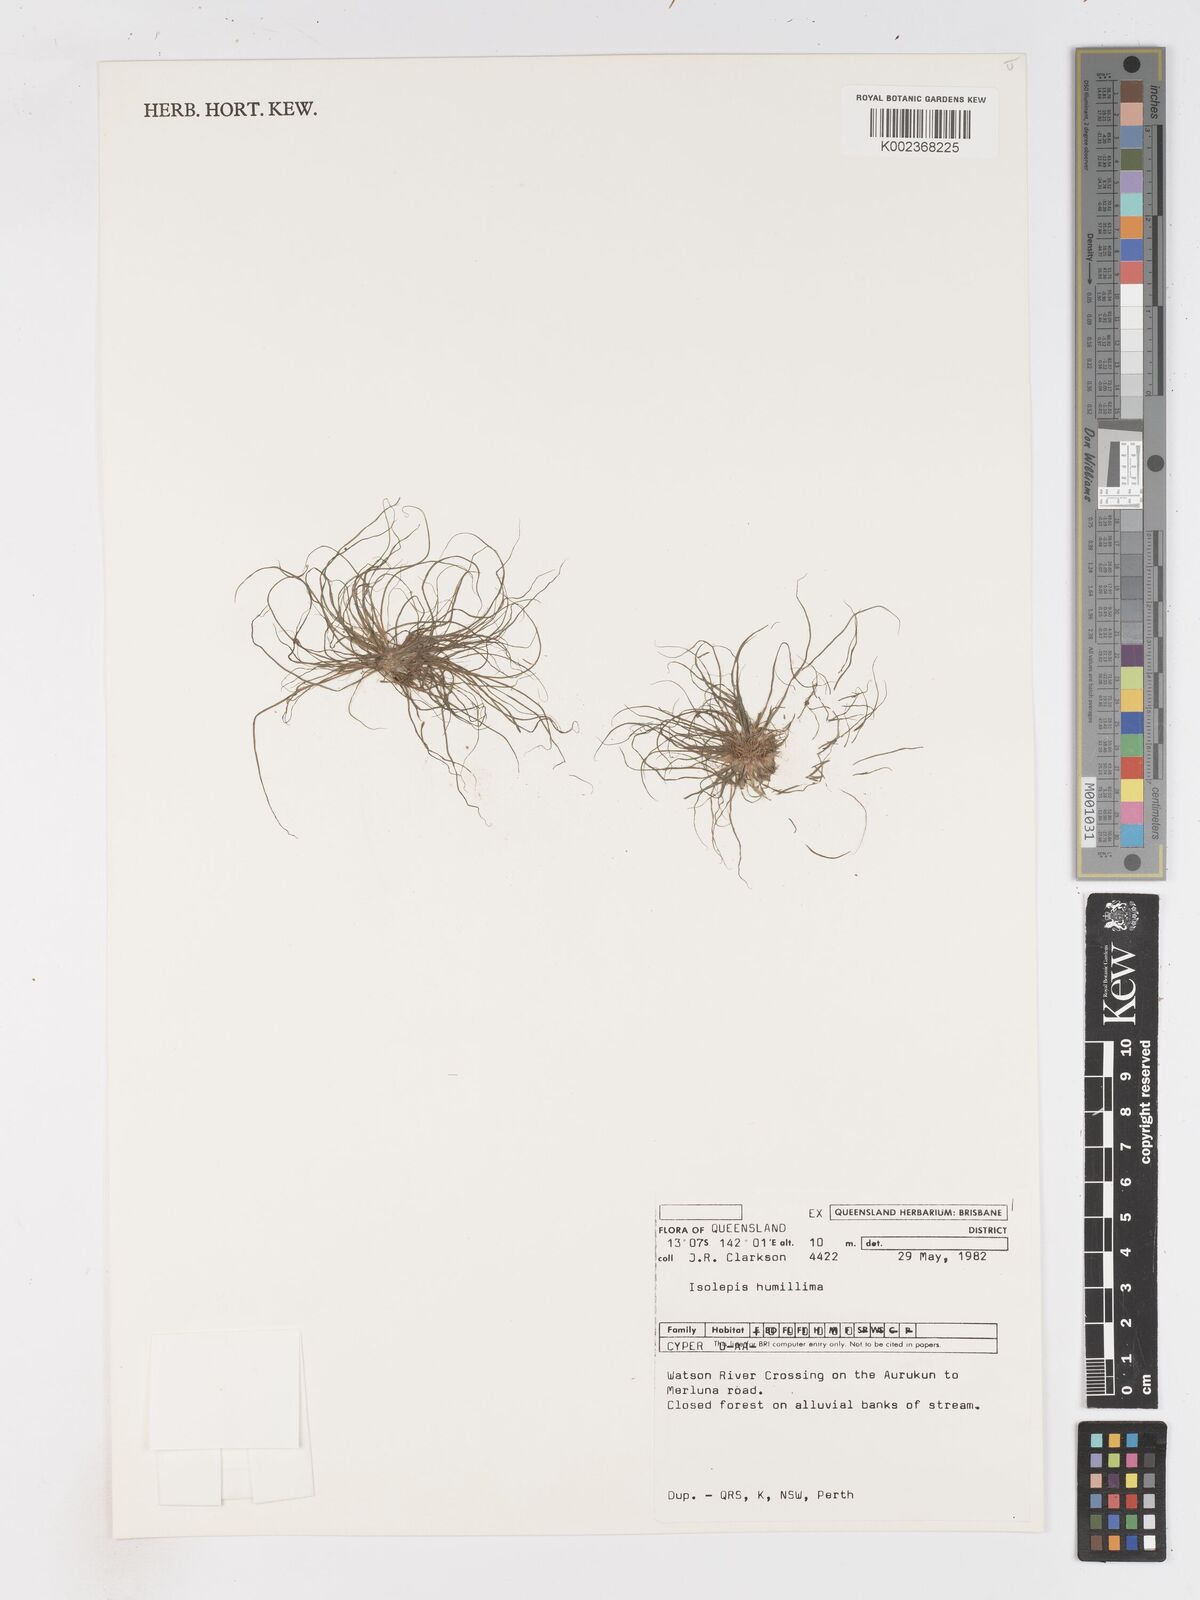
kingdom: Plantae
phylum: Tracheophyta
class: Liliopsida
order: Poales
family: Cyperaceae
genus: Schoenoplectiella
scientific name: Schoenoplectiella humillima
